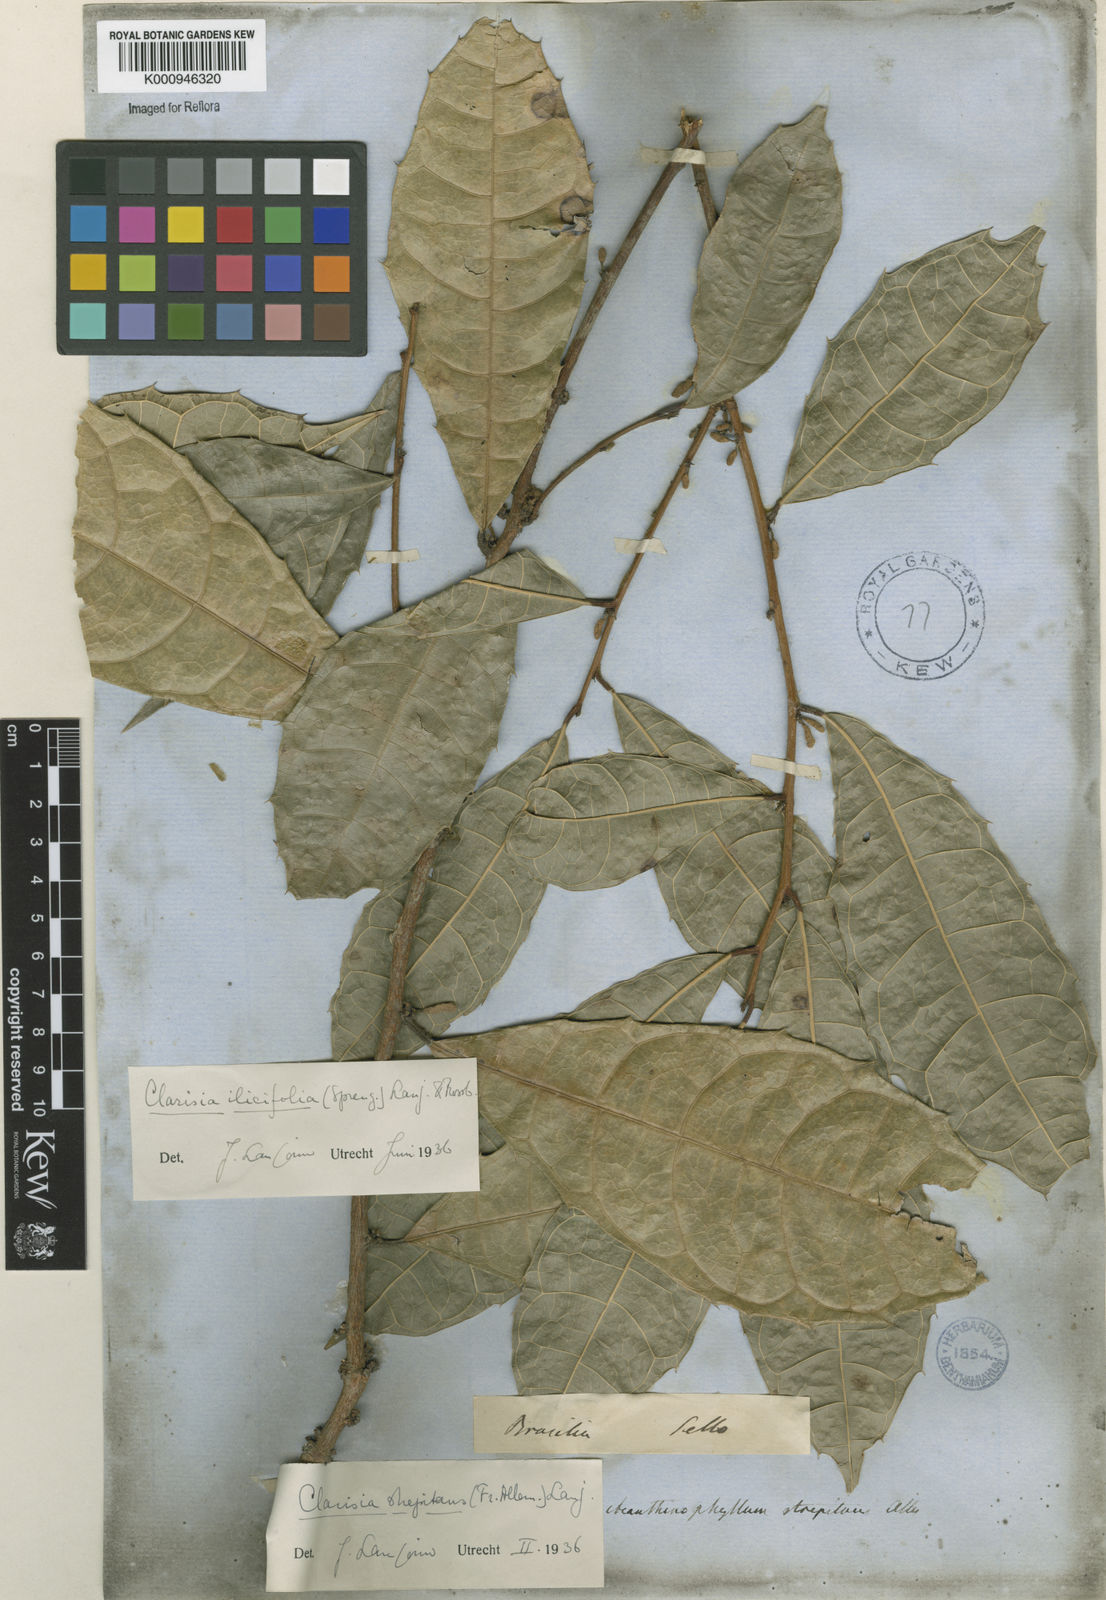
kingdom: Plantae
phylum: Tracheophyta
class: Magnoliopsida
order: Rosales
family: Moraceae
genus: Clarisia
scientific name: Clarisia ilicifolia
